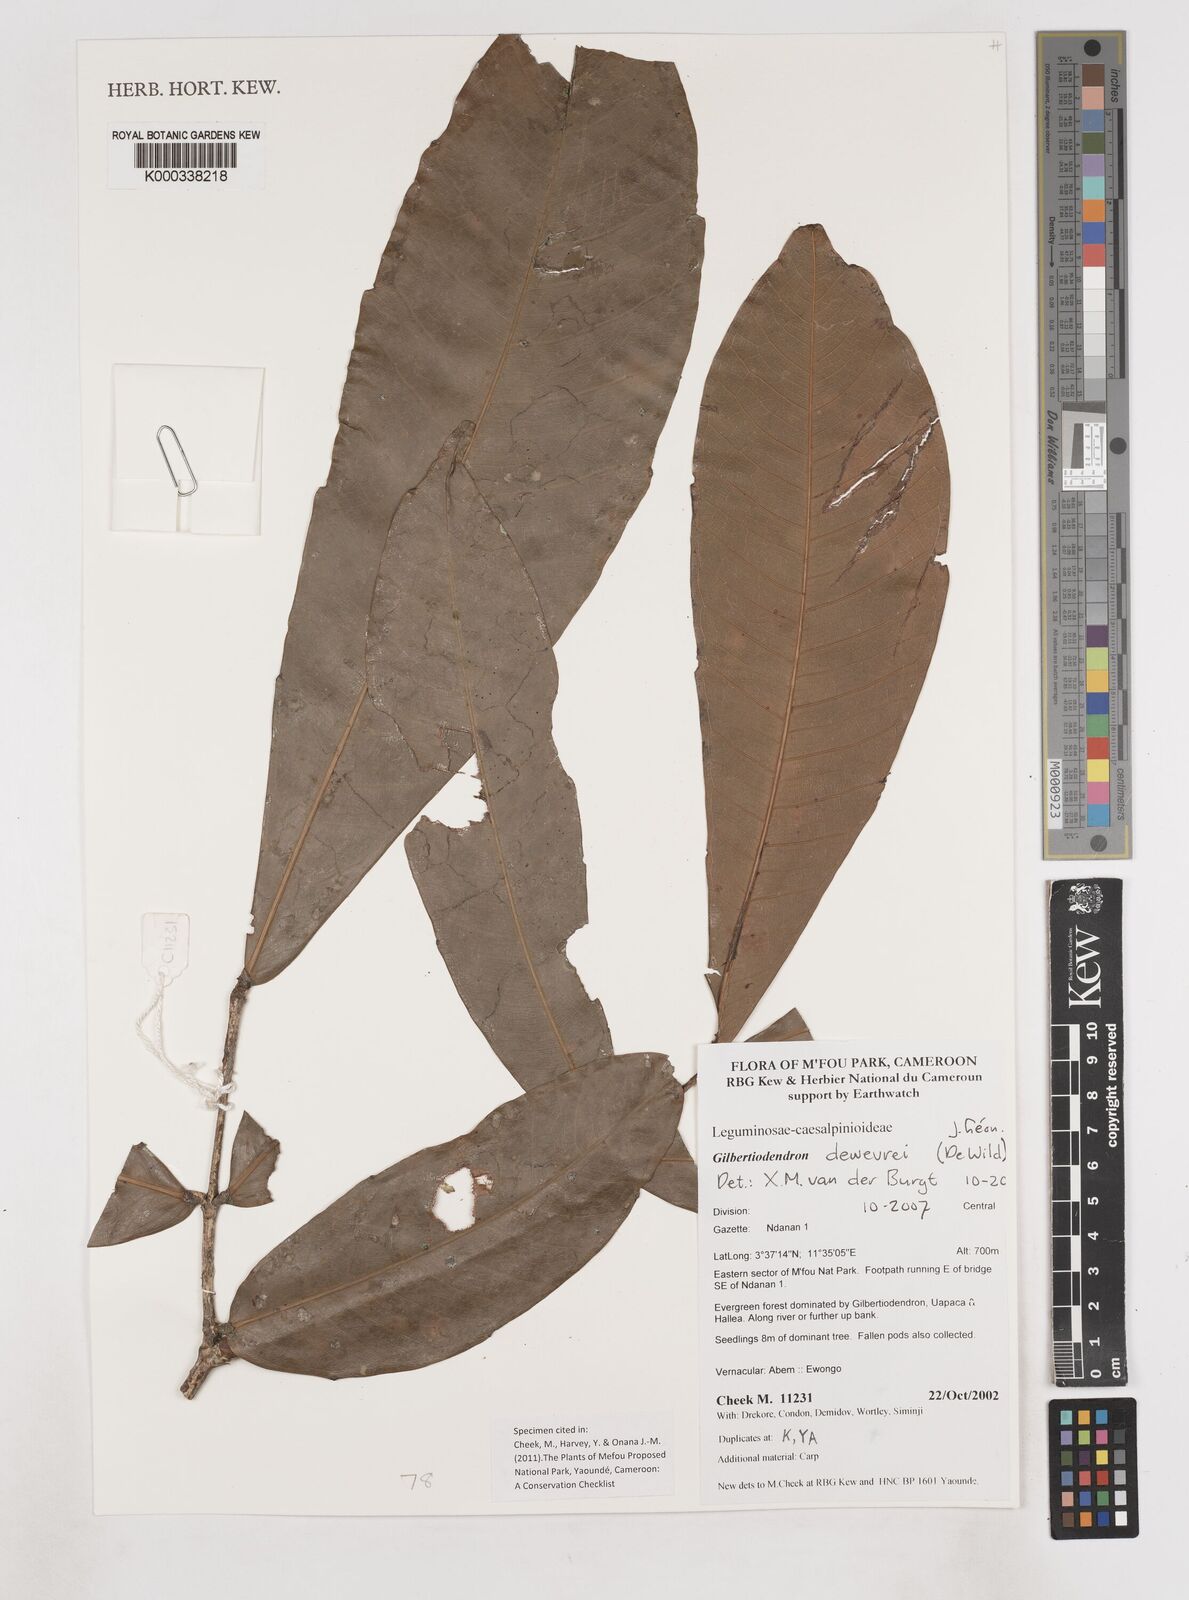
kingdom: Plantae
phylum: Tracheophyta
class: Magnoliopsida
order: Fabales
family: Fabaceae
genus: Gilbertiodendron
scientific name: Gilbertiodendron
